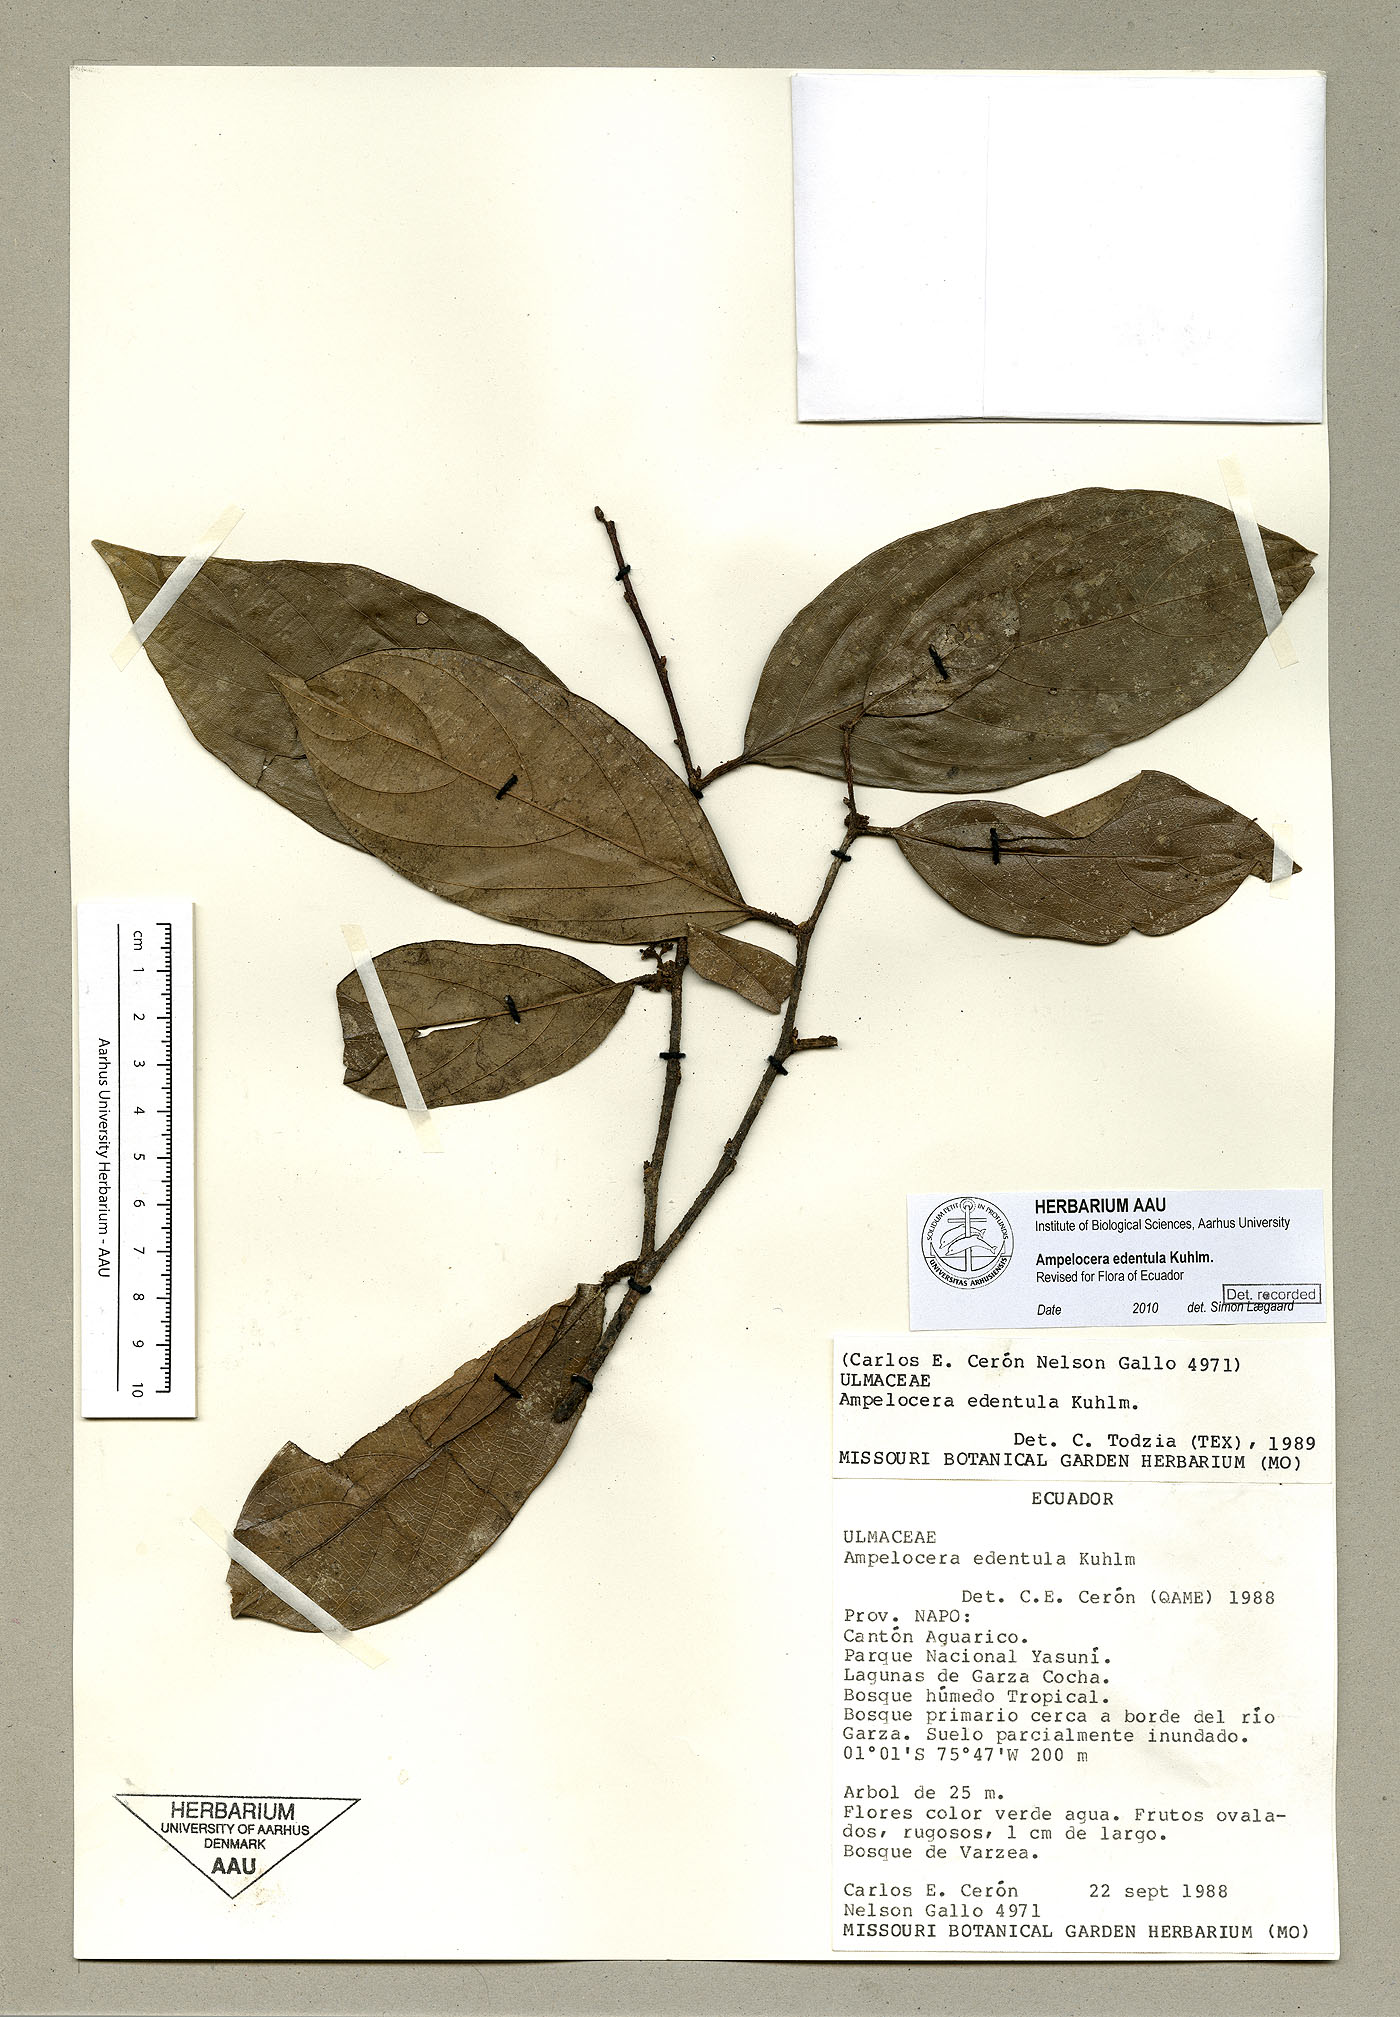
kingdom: Plantae
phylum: Tracheophyta
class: Magnoliopsida
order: Rosales
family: Cannabaceae
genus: Ampelocera
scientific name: Ampelocera edentula
